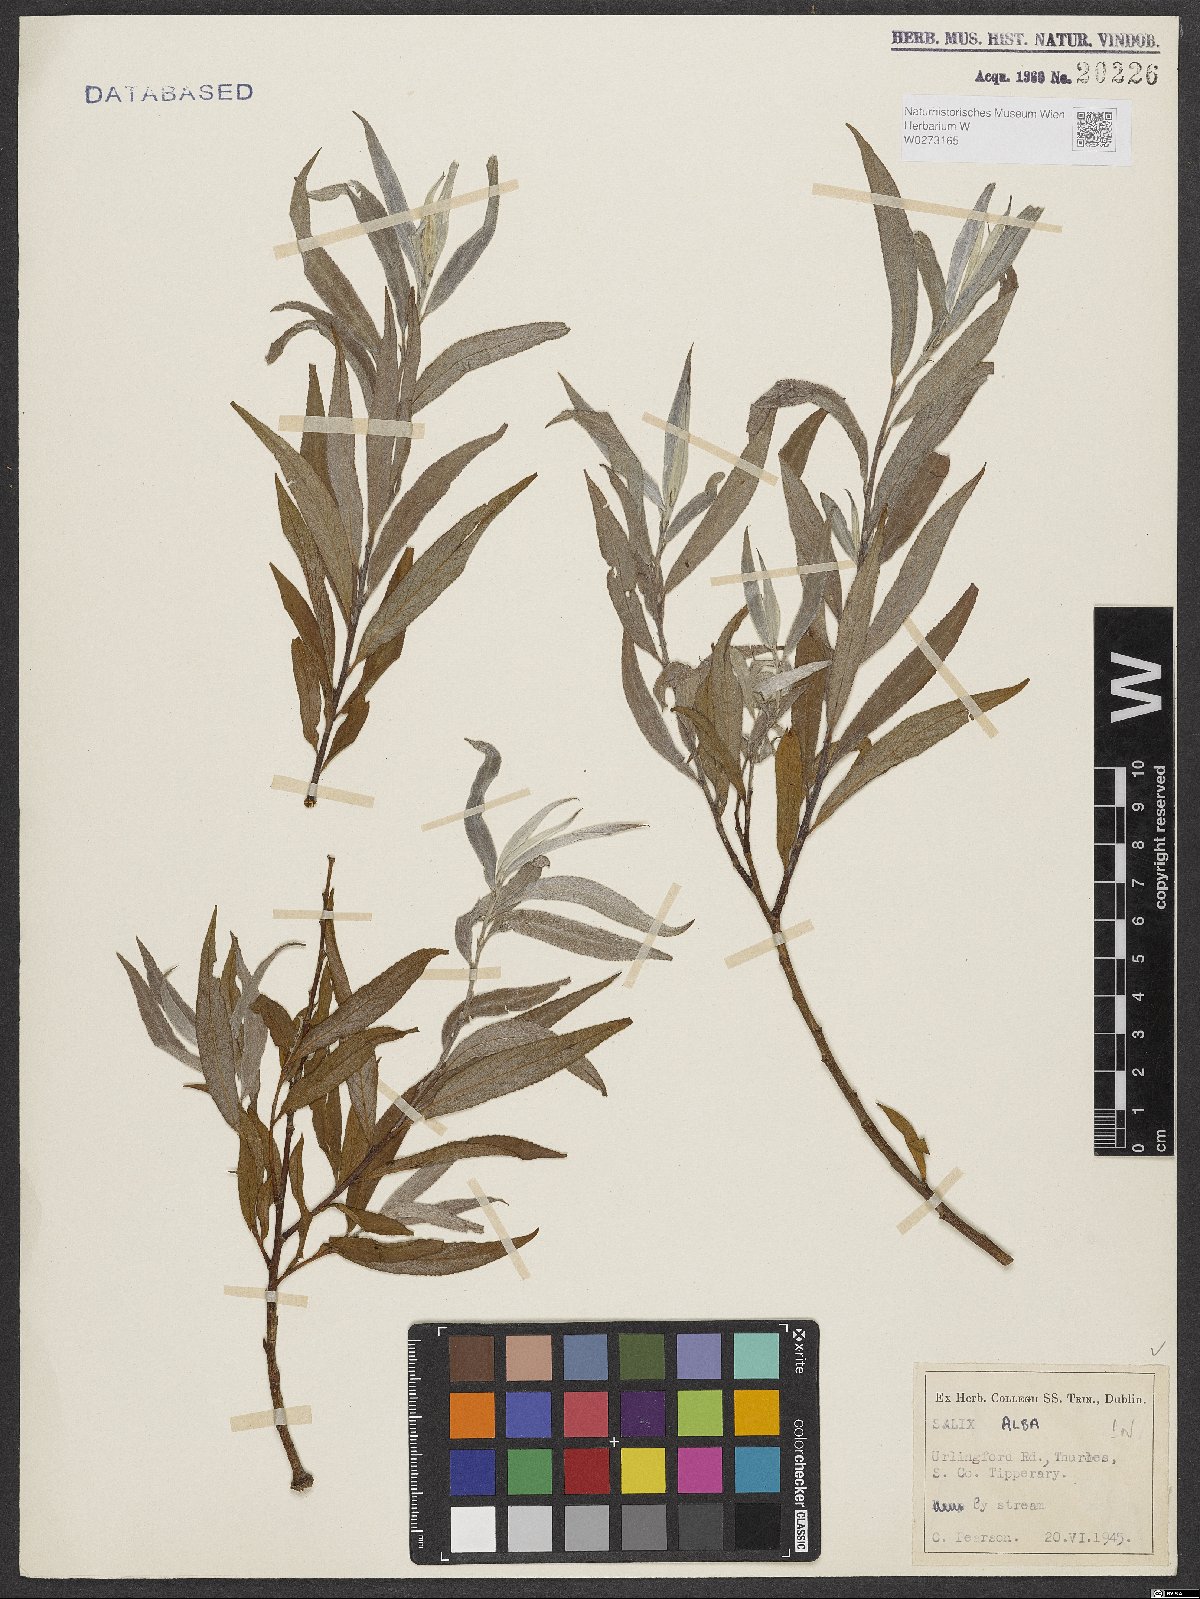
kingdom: Plantae
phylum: Tracheophyta
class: Magnoliopsida
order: Malpighiales
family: Salicaceae
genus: Salix
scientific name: Salix alba
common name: White willow
